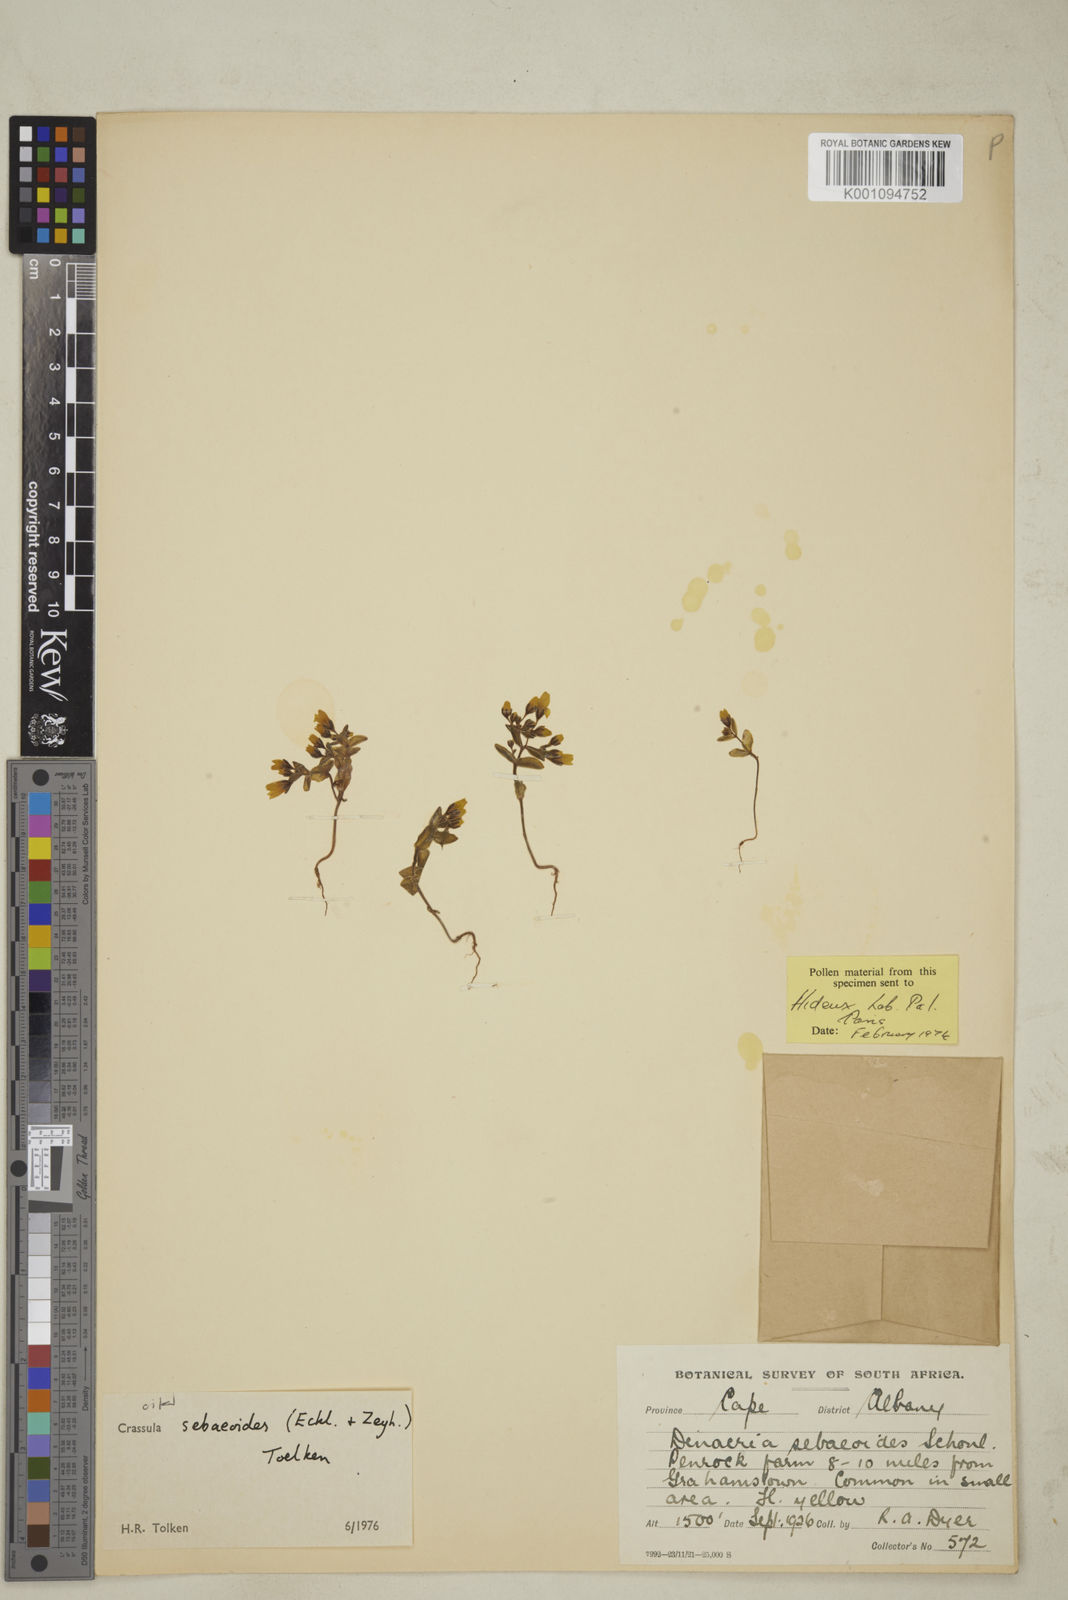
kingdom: Plantae
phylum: Tracheophyta
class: Magnoliopsida
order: Saxifragales
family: Crassulaceae
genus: Crassula
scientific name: Crassula sebaeoides
